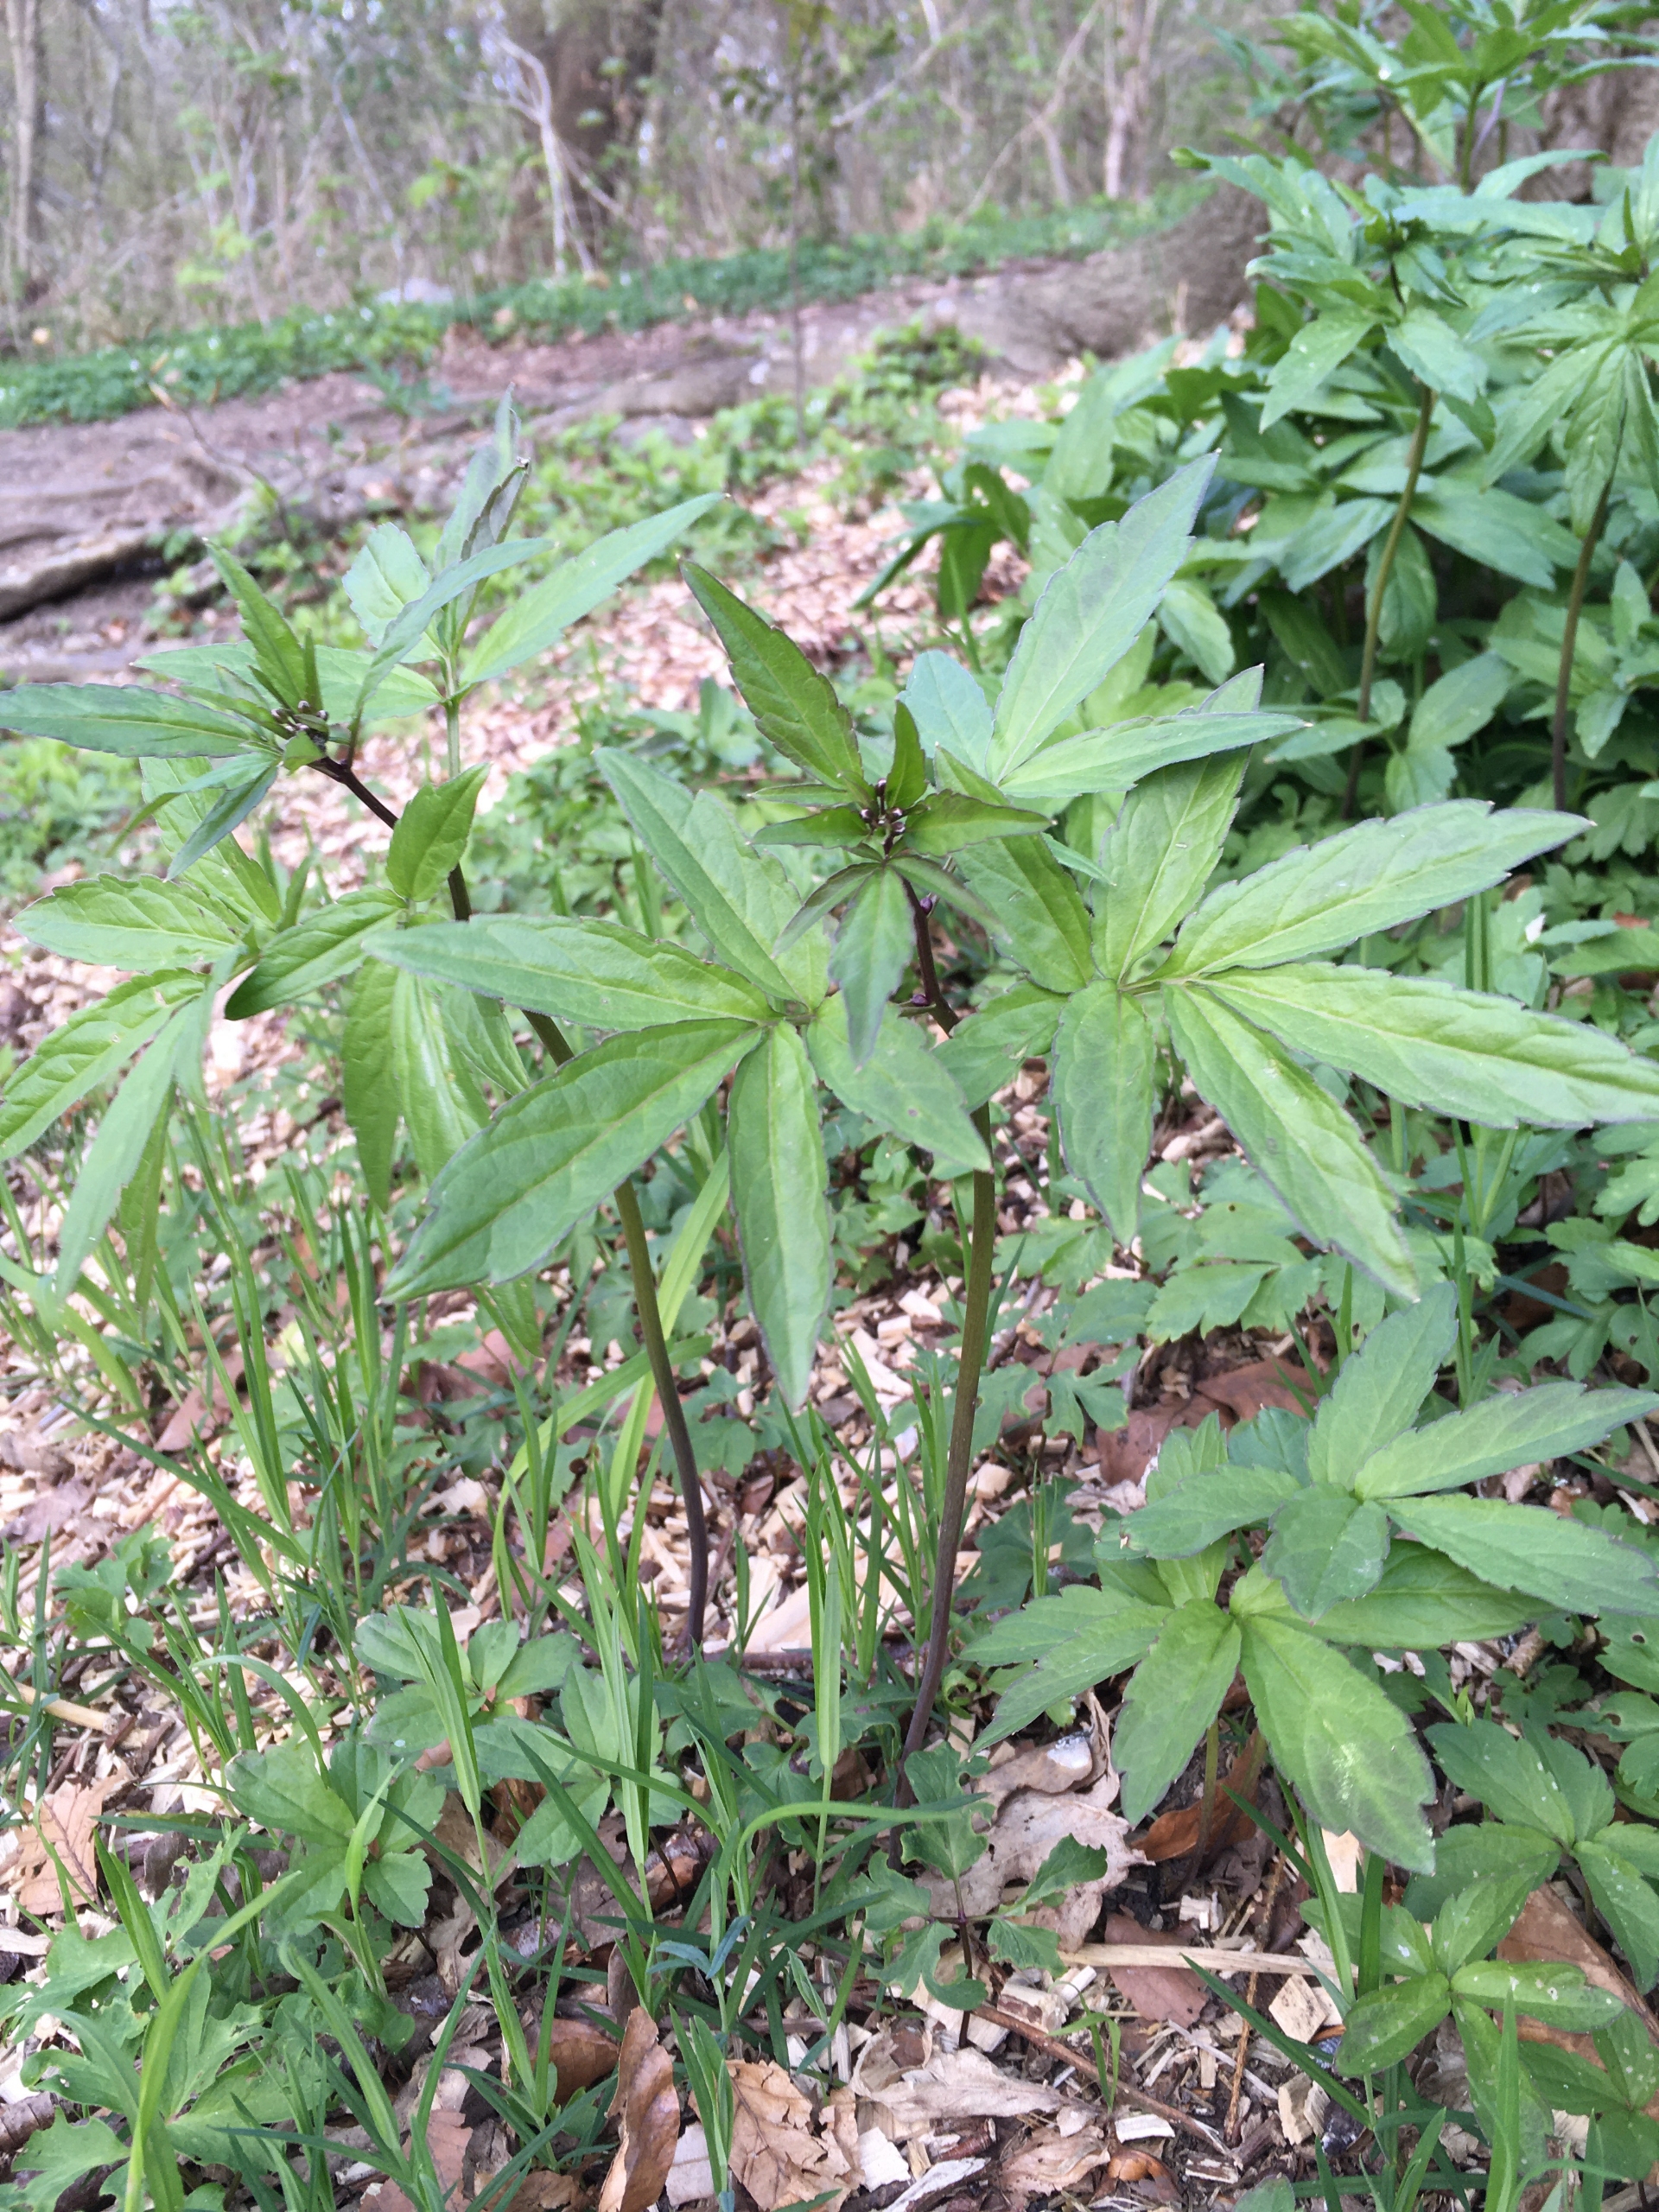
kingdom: Plantae
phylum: Tracheophyta
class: Magnoliopsida
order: Brassicales
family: Brassicaceae
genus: Cardamine
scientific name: Cardamine bulbifera
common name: Tandrod
